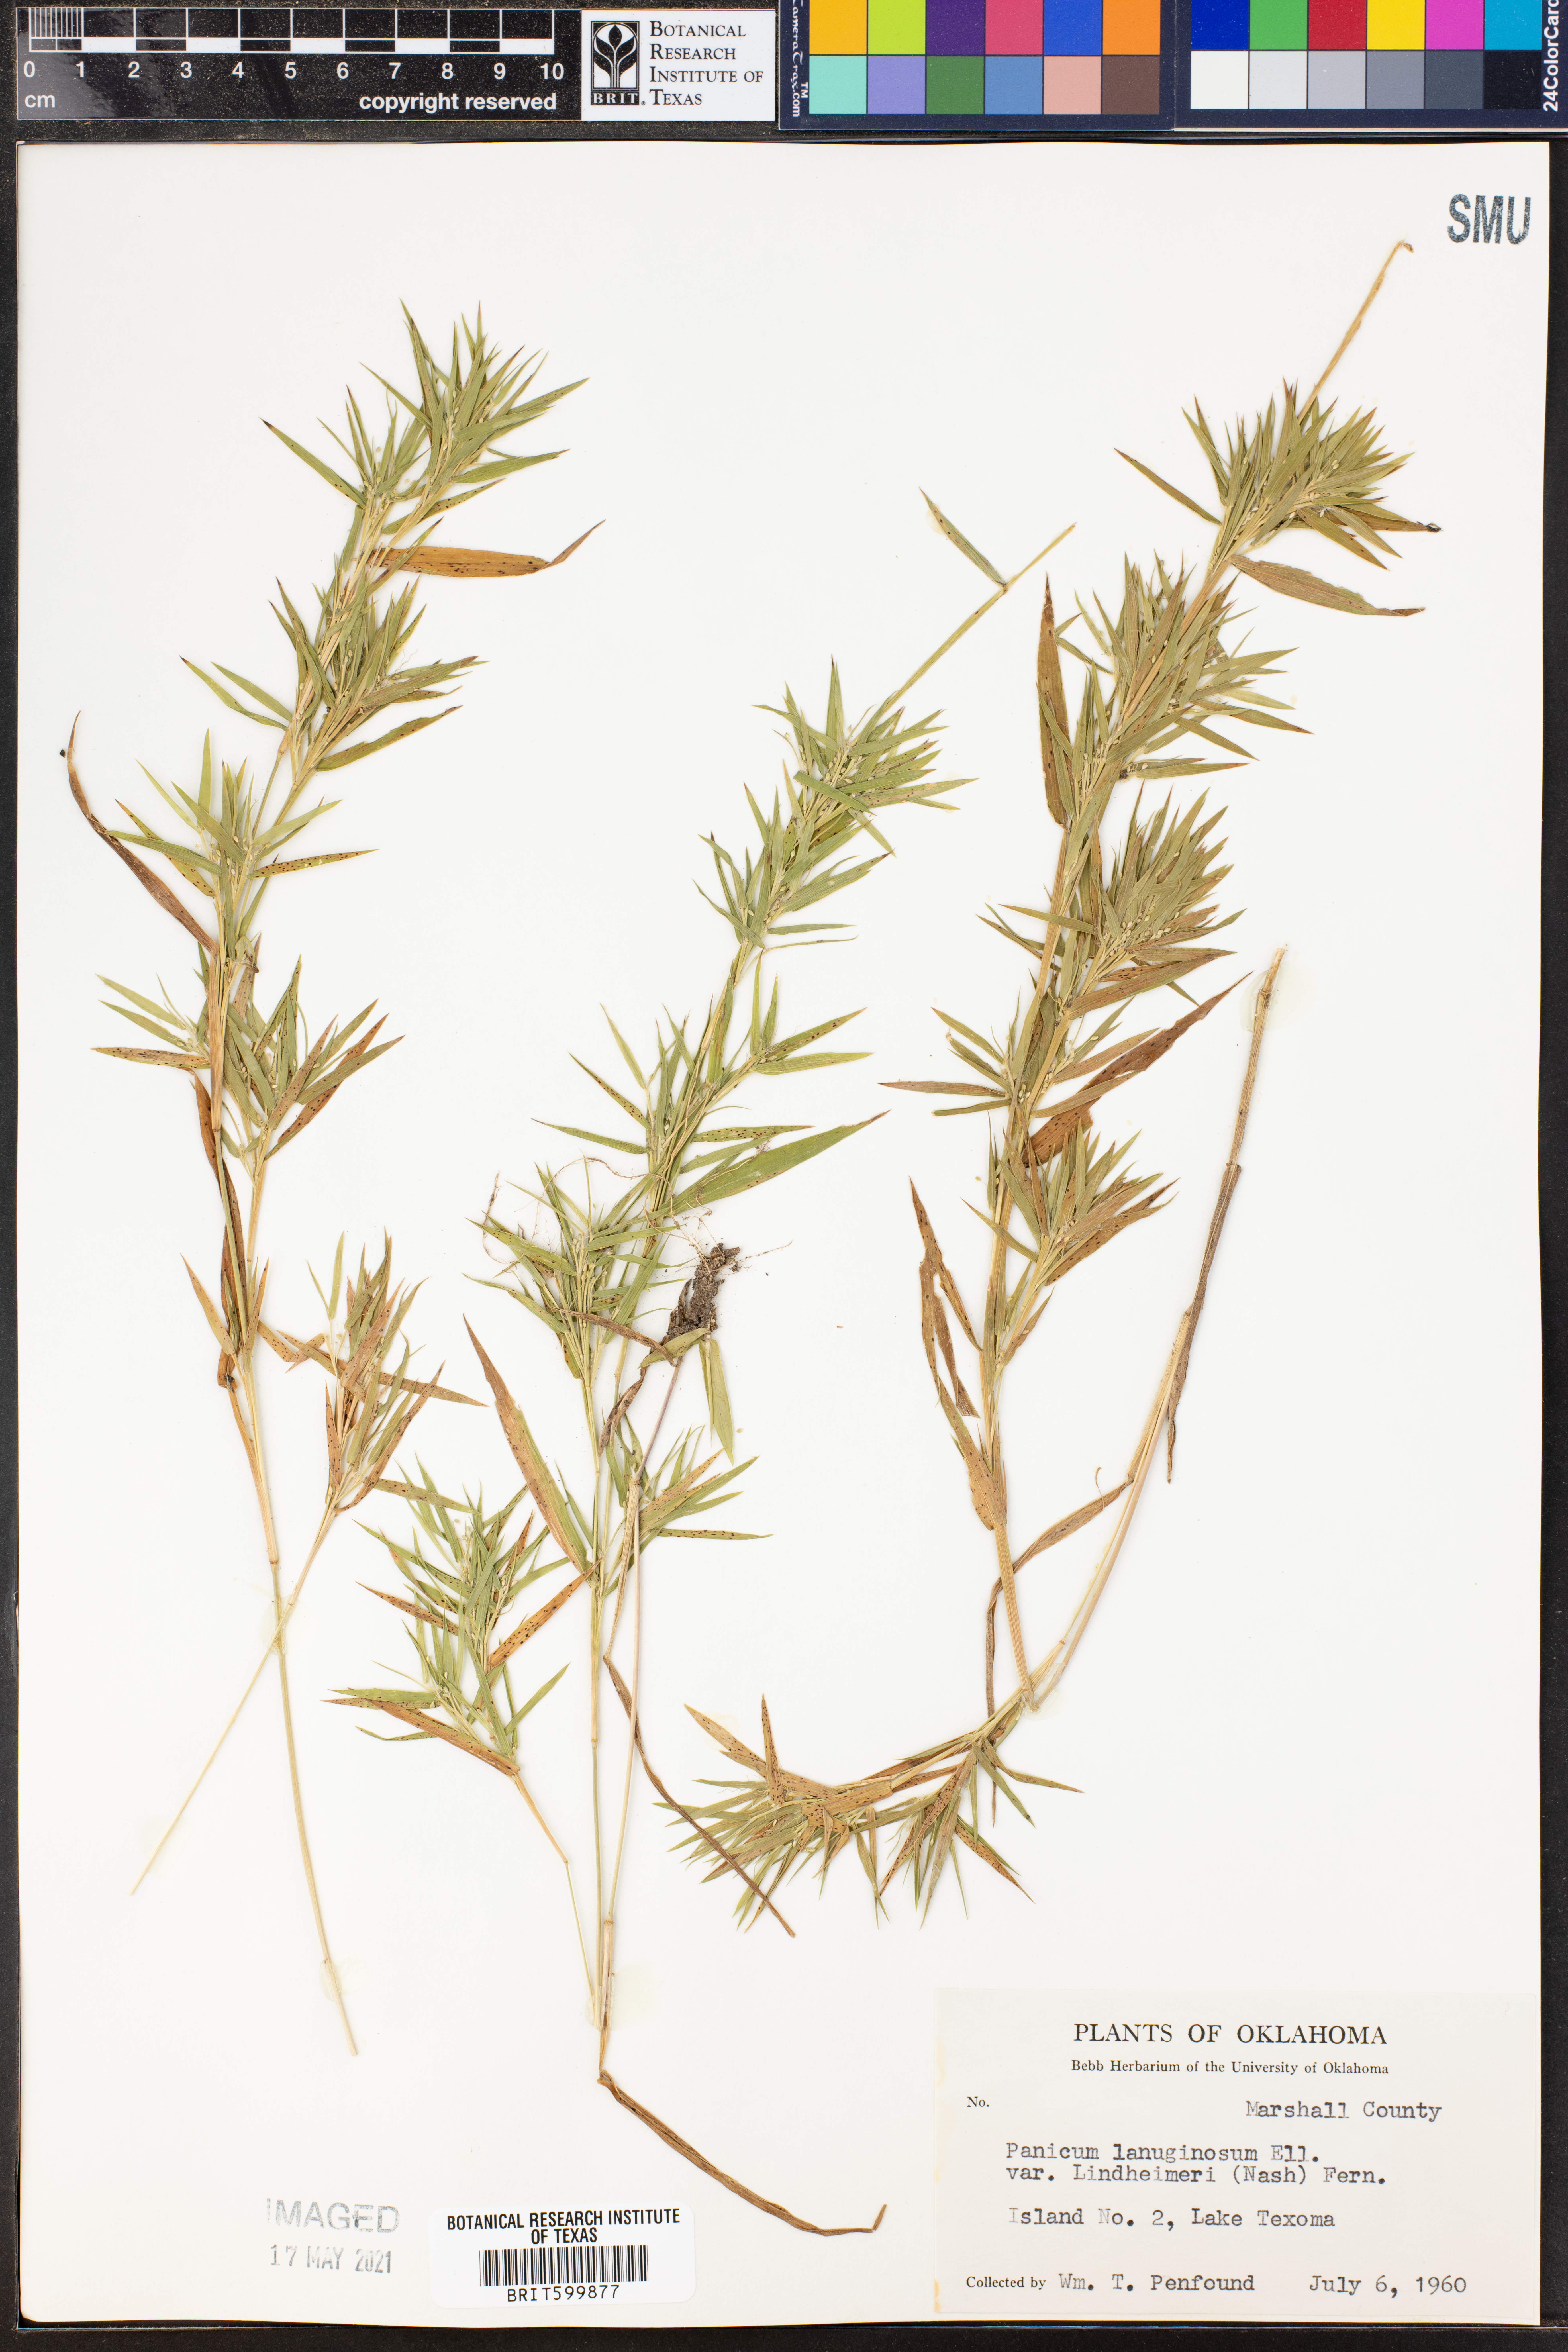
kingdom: Plantae
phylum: Tracheophyta
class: Liliopsida
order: Poales
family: Poaceae
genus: Dichanthelium
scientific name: Dichanthelium lindheimeri
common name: Lindheimer's panicgrass
